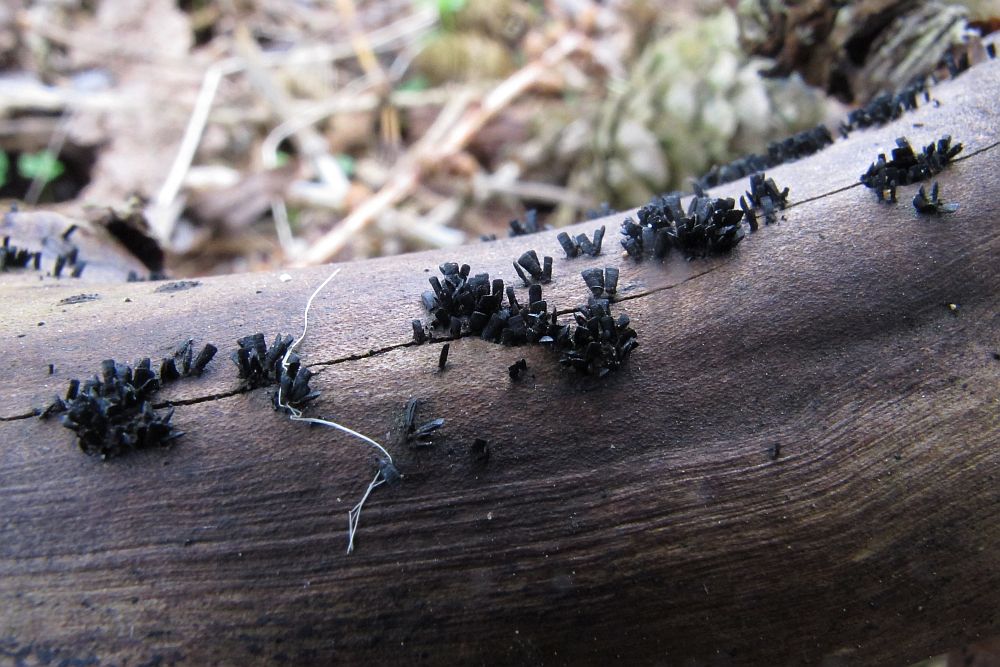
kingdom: Fungi
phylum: Ascomycota
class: Eurotiomycetes
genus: Glyphium
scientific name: Glyphium elatum
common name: kuløkse
